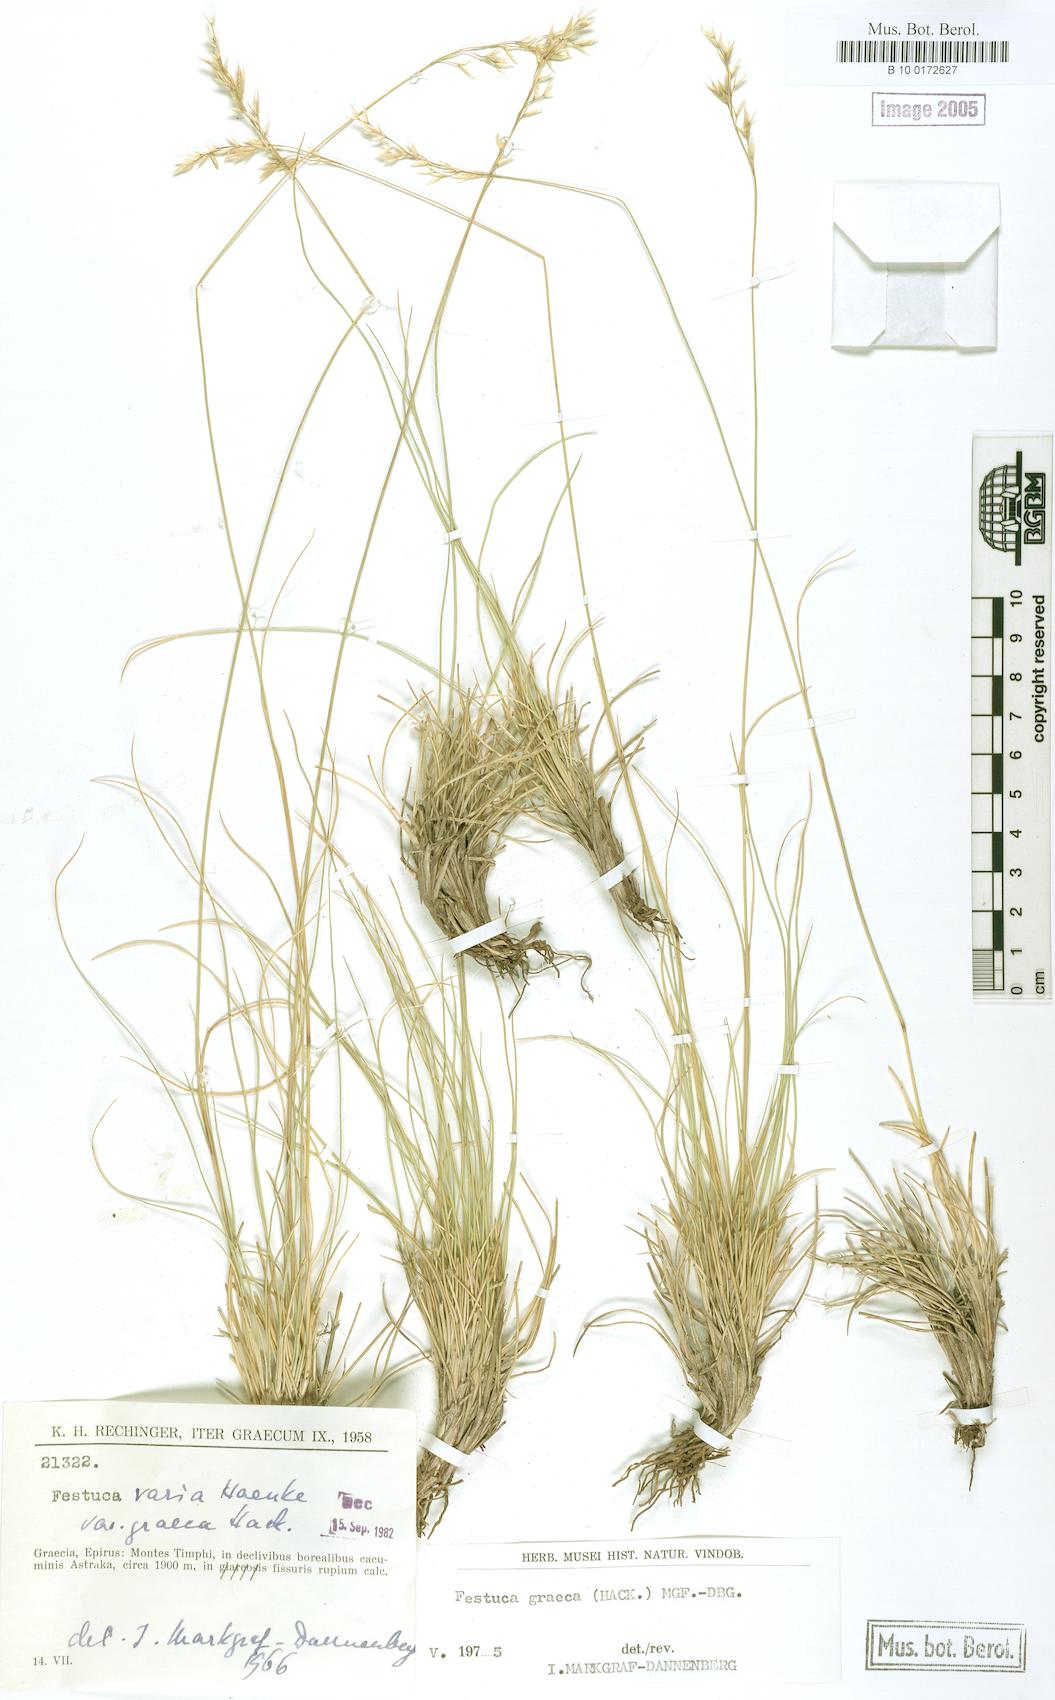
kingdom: Plantae
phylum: Tracheophyta
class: Liliopsida
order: Poales
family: Poaceae
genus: Festuca
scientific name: Festuca graeca
